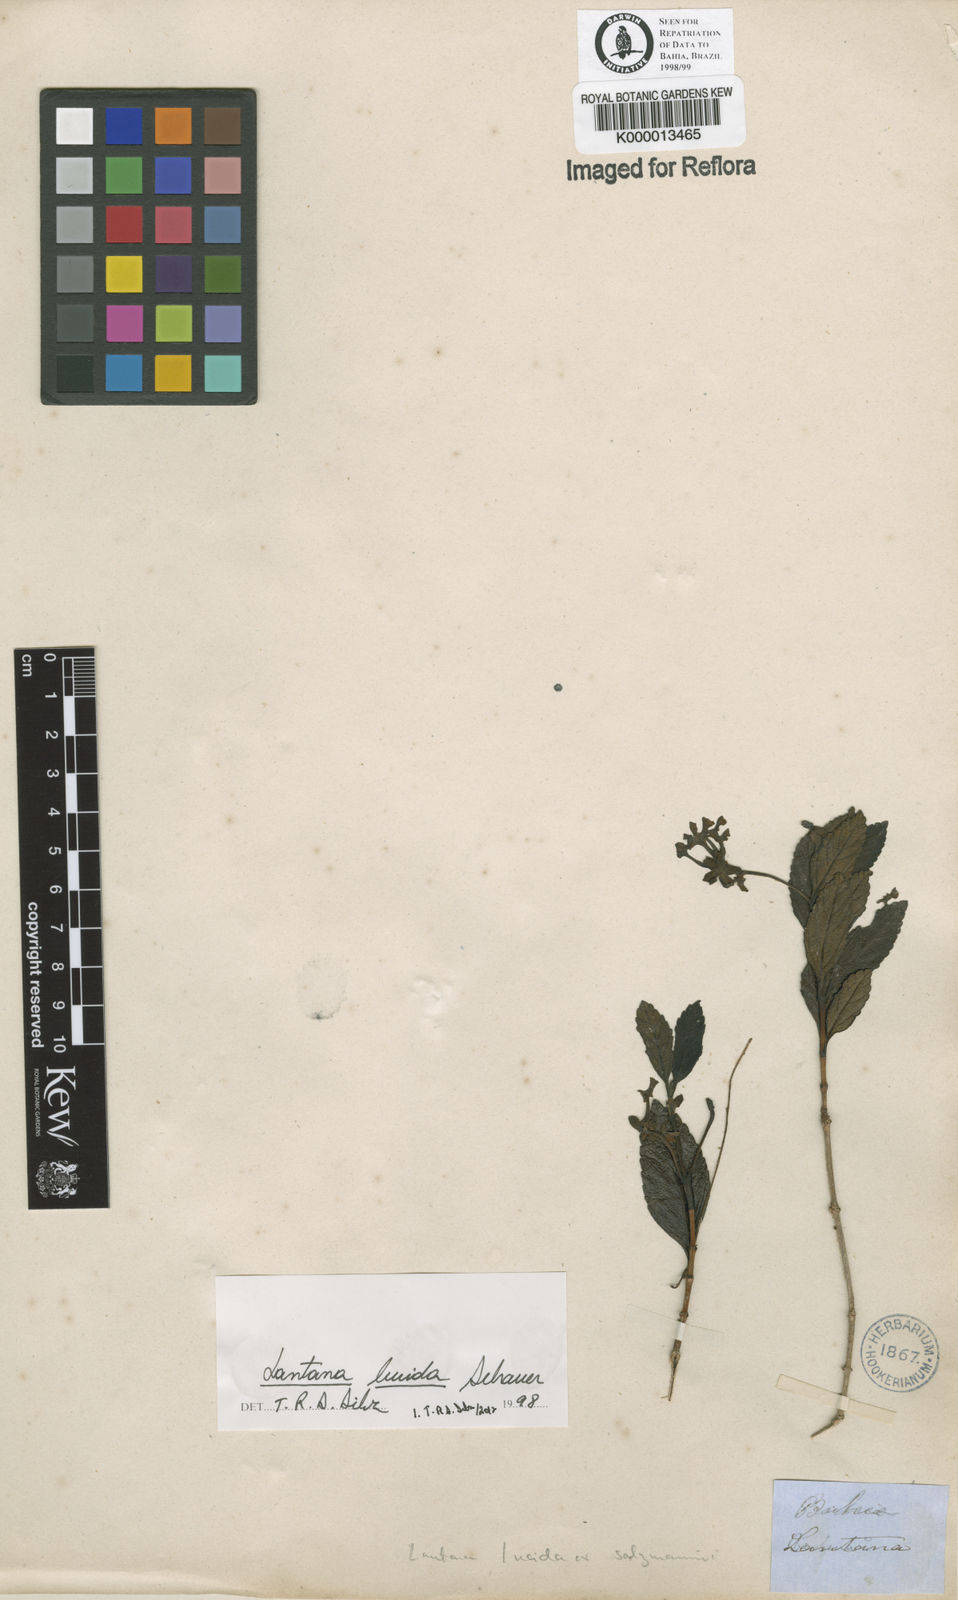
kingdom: Plantae
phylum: Tracheophyta
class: Magnoliopsida
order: Lamiales
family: Verbenaceae
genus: Lantana
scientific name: Lantana lucida
